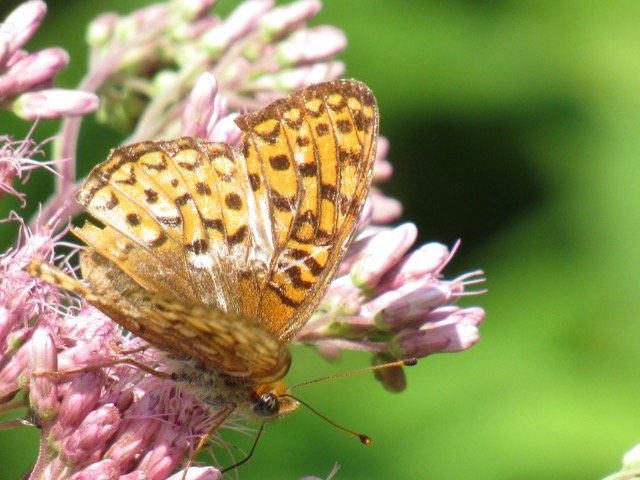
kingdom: Animalia
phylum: Arthropoda
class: Insecta
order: Lepidoptera
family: Nymphalidae
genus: Speyeria
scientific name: Speyeria atlantis
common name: Atlantis Fritillary
